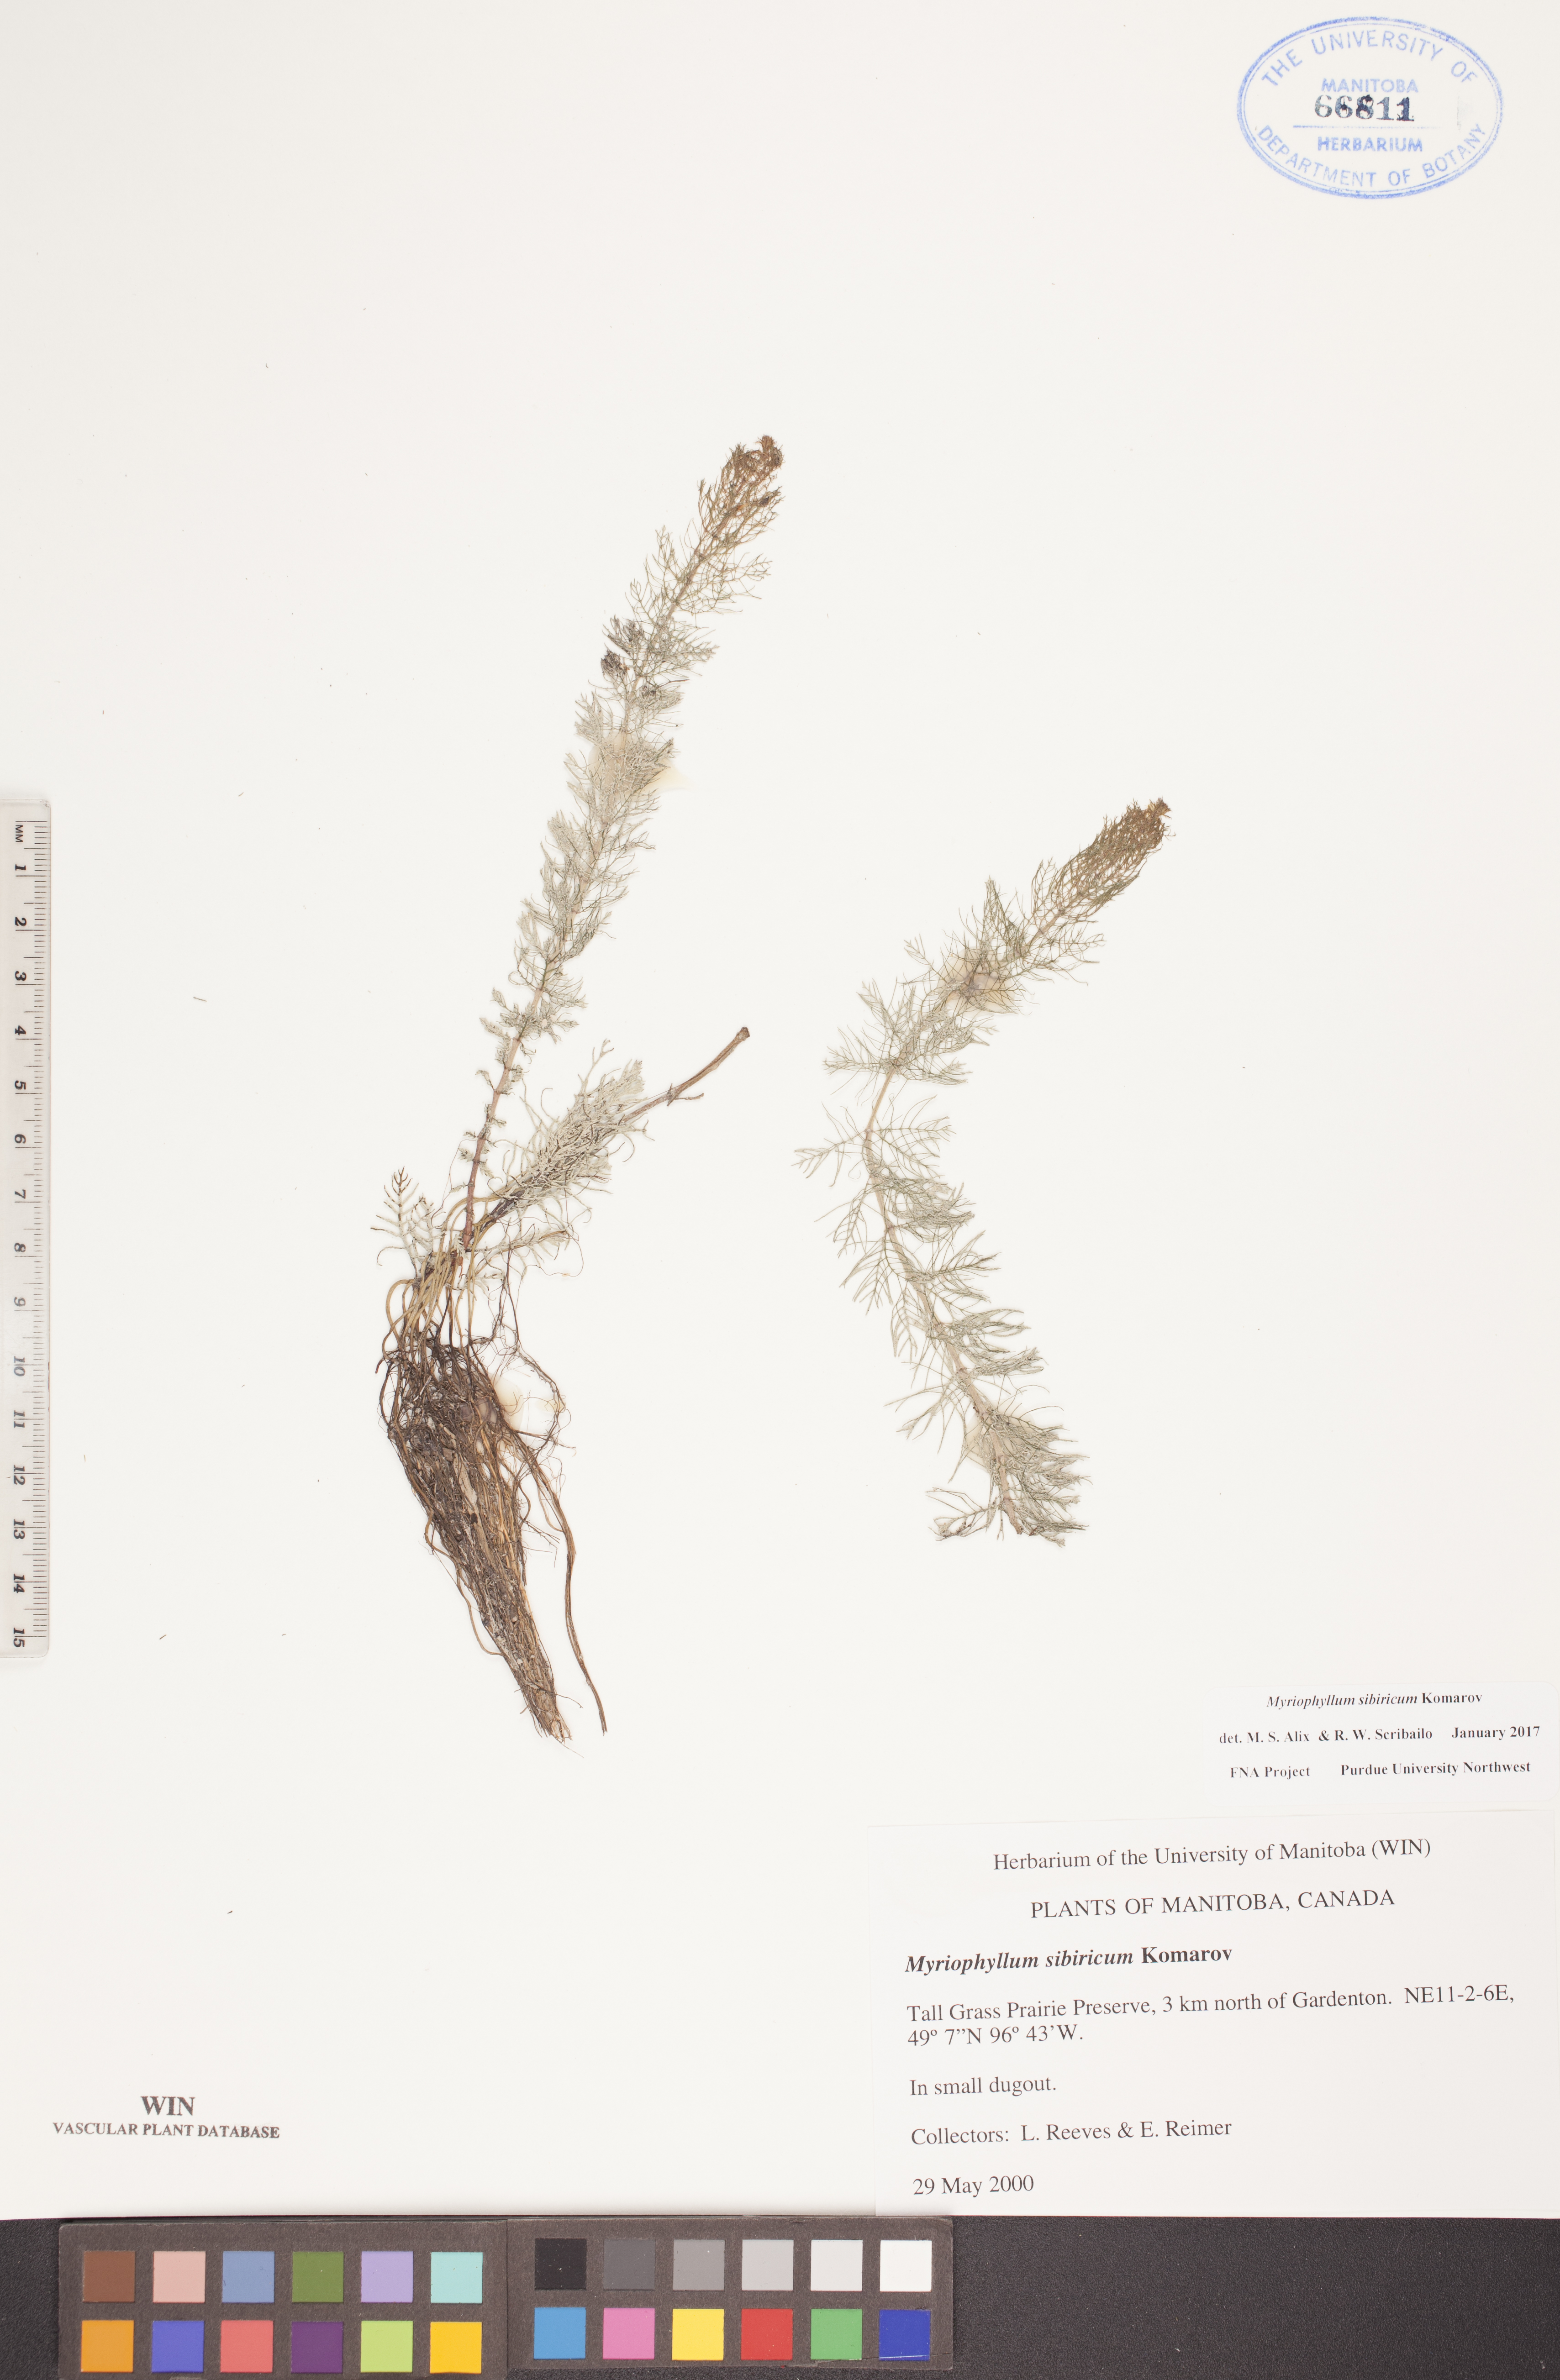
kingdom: Plantae
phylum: Tracheophyta
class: Magnoliopsida
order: Saxifragales
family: Haloragaceae
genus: Myriophyllum
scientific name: Myriophyllum sibiricum
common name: Siberian water-milfoil
